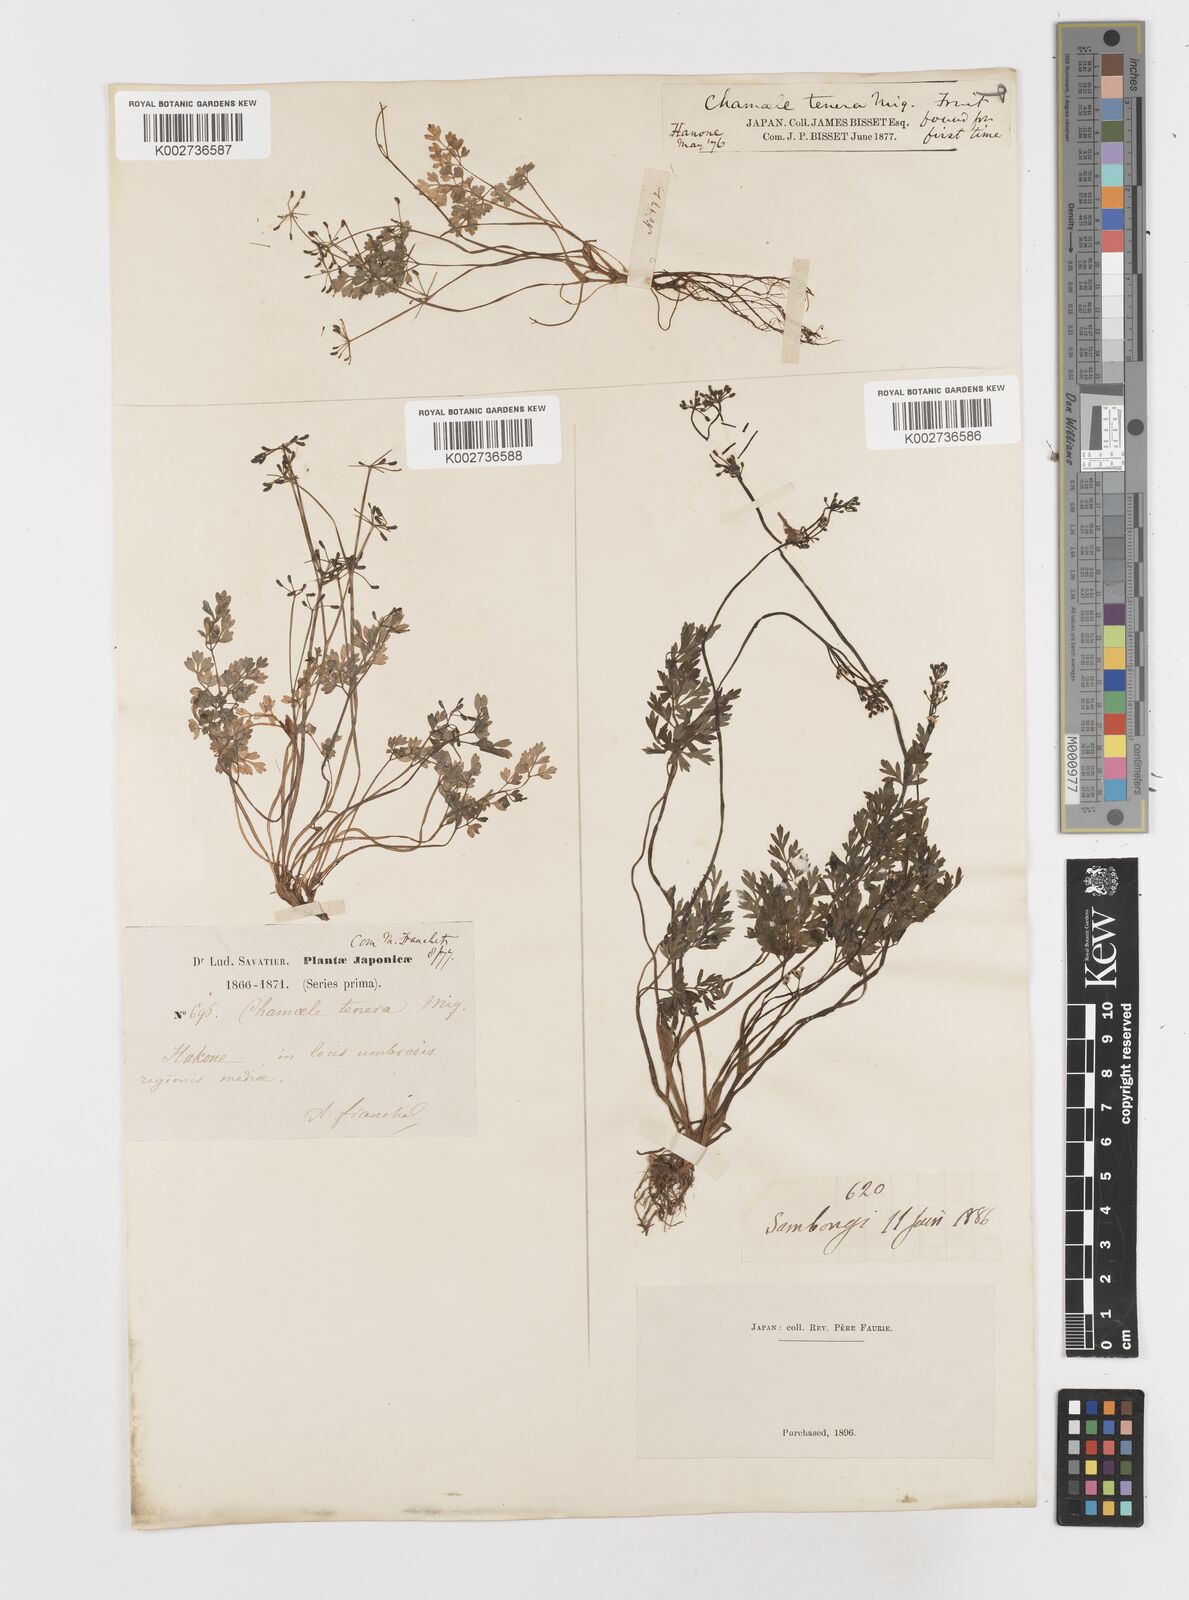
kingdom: Plantae
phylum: Tracheophyta
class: Magnoliopsida
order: Apiales
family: Apiaceae
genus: Aegopodium
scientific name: Aegopodium decumbens
